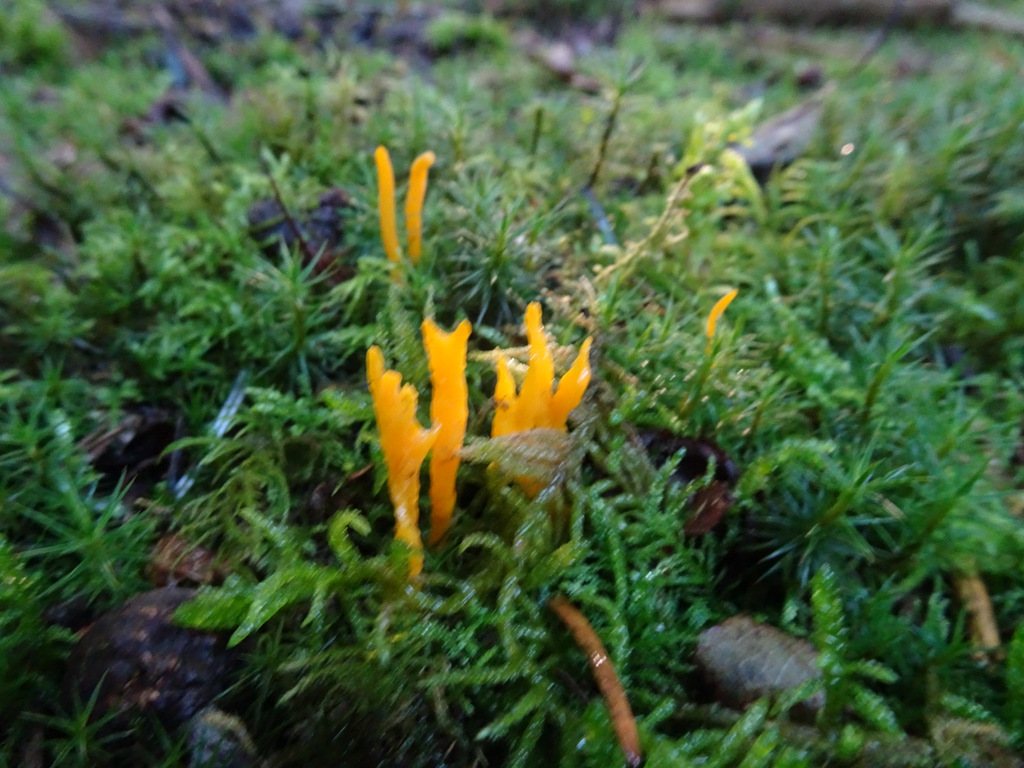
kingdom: Fungi
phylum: Basidiomycota
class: Dacrymycetes
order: Dacrymycetales
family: Dacrymycetaceae
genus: Calocera
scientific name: Calocera viscosa
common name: almindelig guldgaffel
